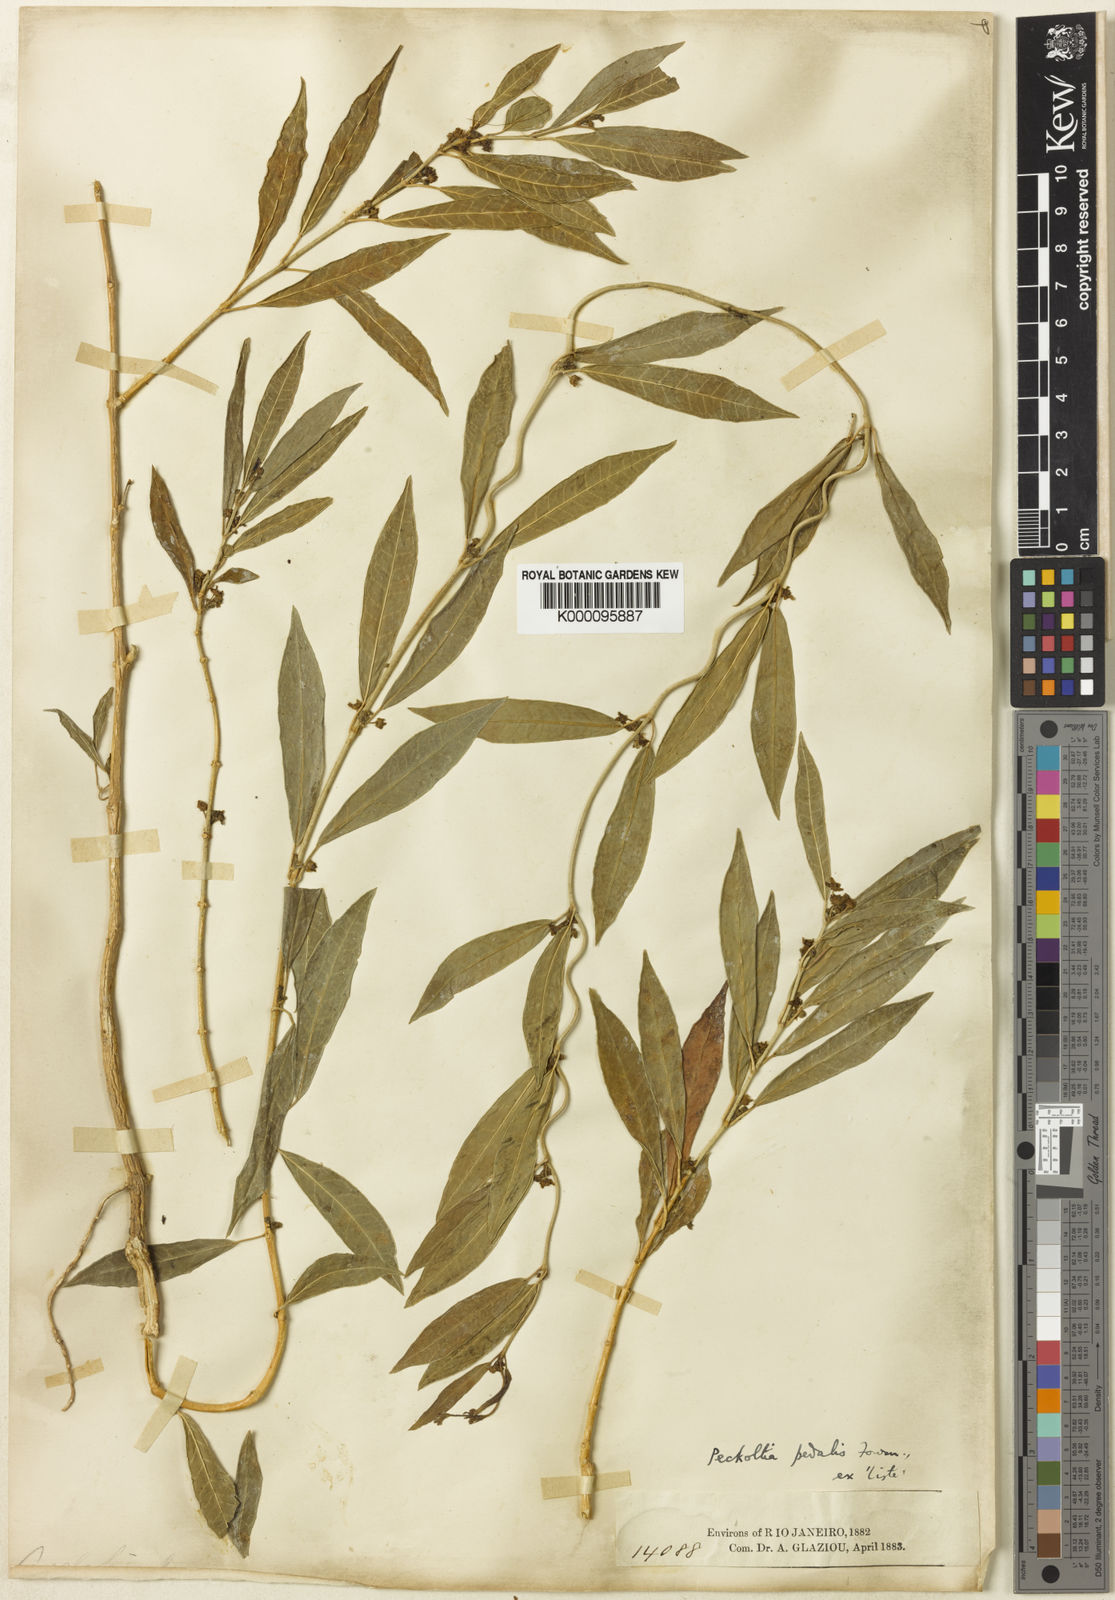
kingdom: Plantae
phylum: Tracheophyta
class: Magnoliopsida
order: Gentianales
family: Apocynaceae
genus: Matelea
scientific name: Matelea pedalis
